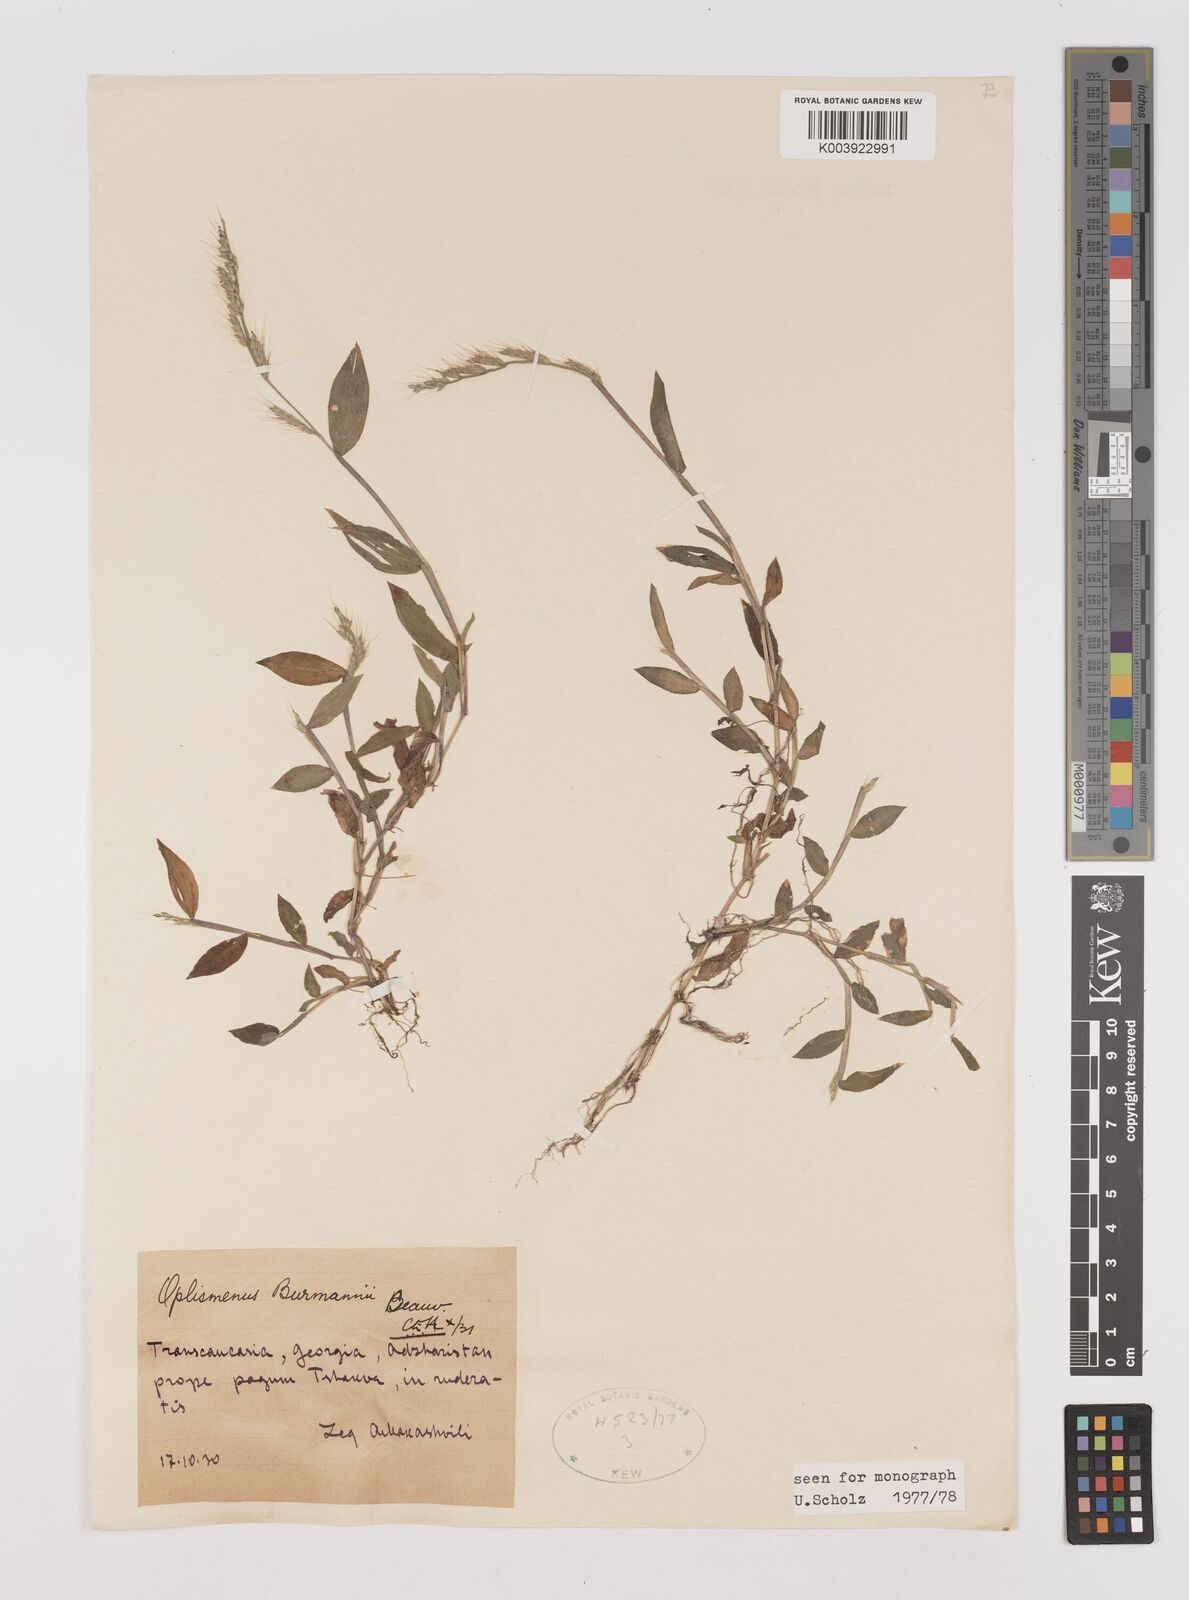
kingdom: Plantae
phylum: Tracheophyta
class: Liliopsida
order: Poales
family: Poaceae
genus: Oplismenus
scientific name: Oplismenus
